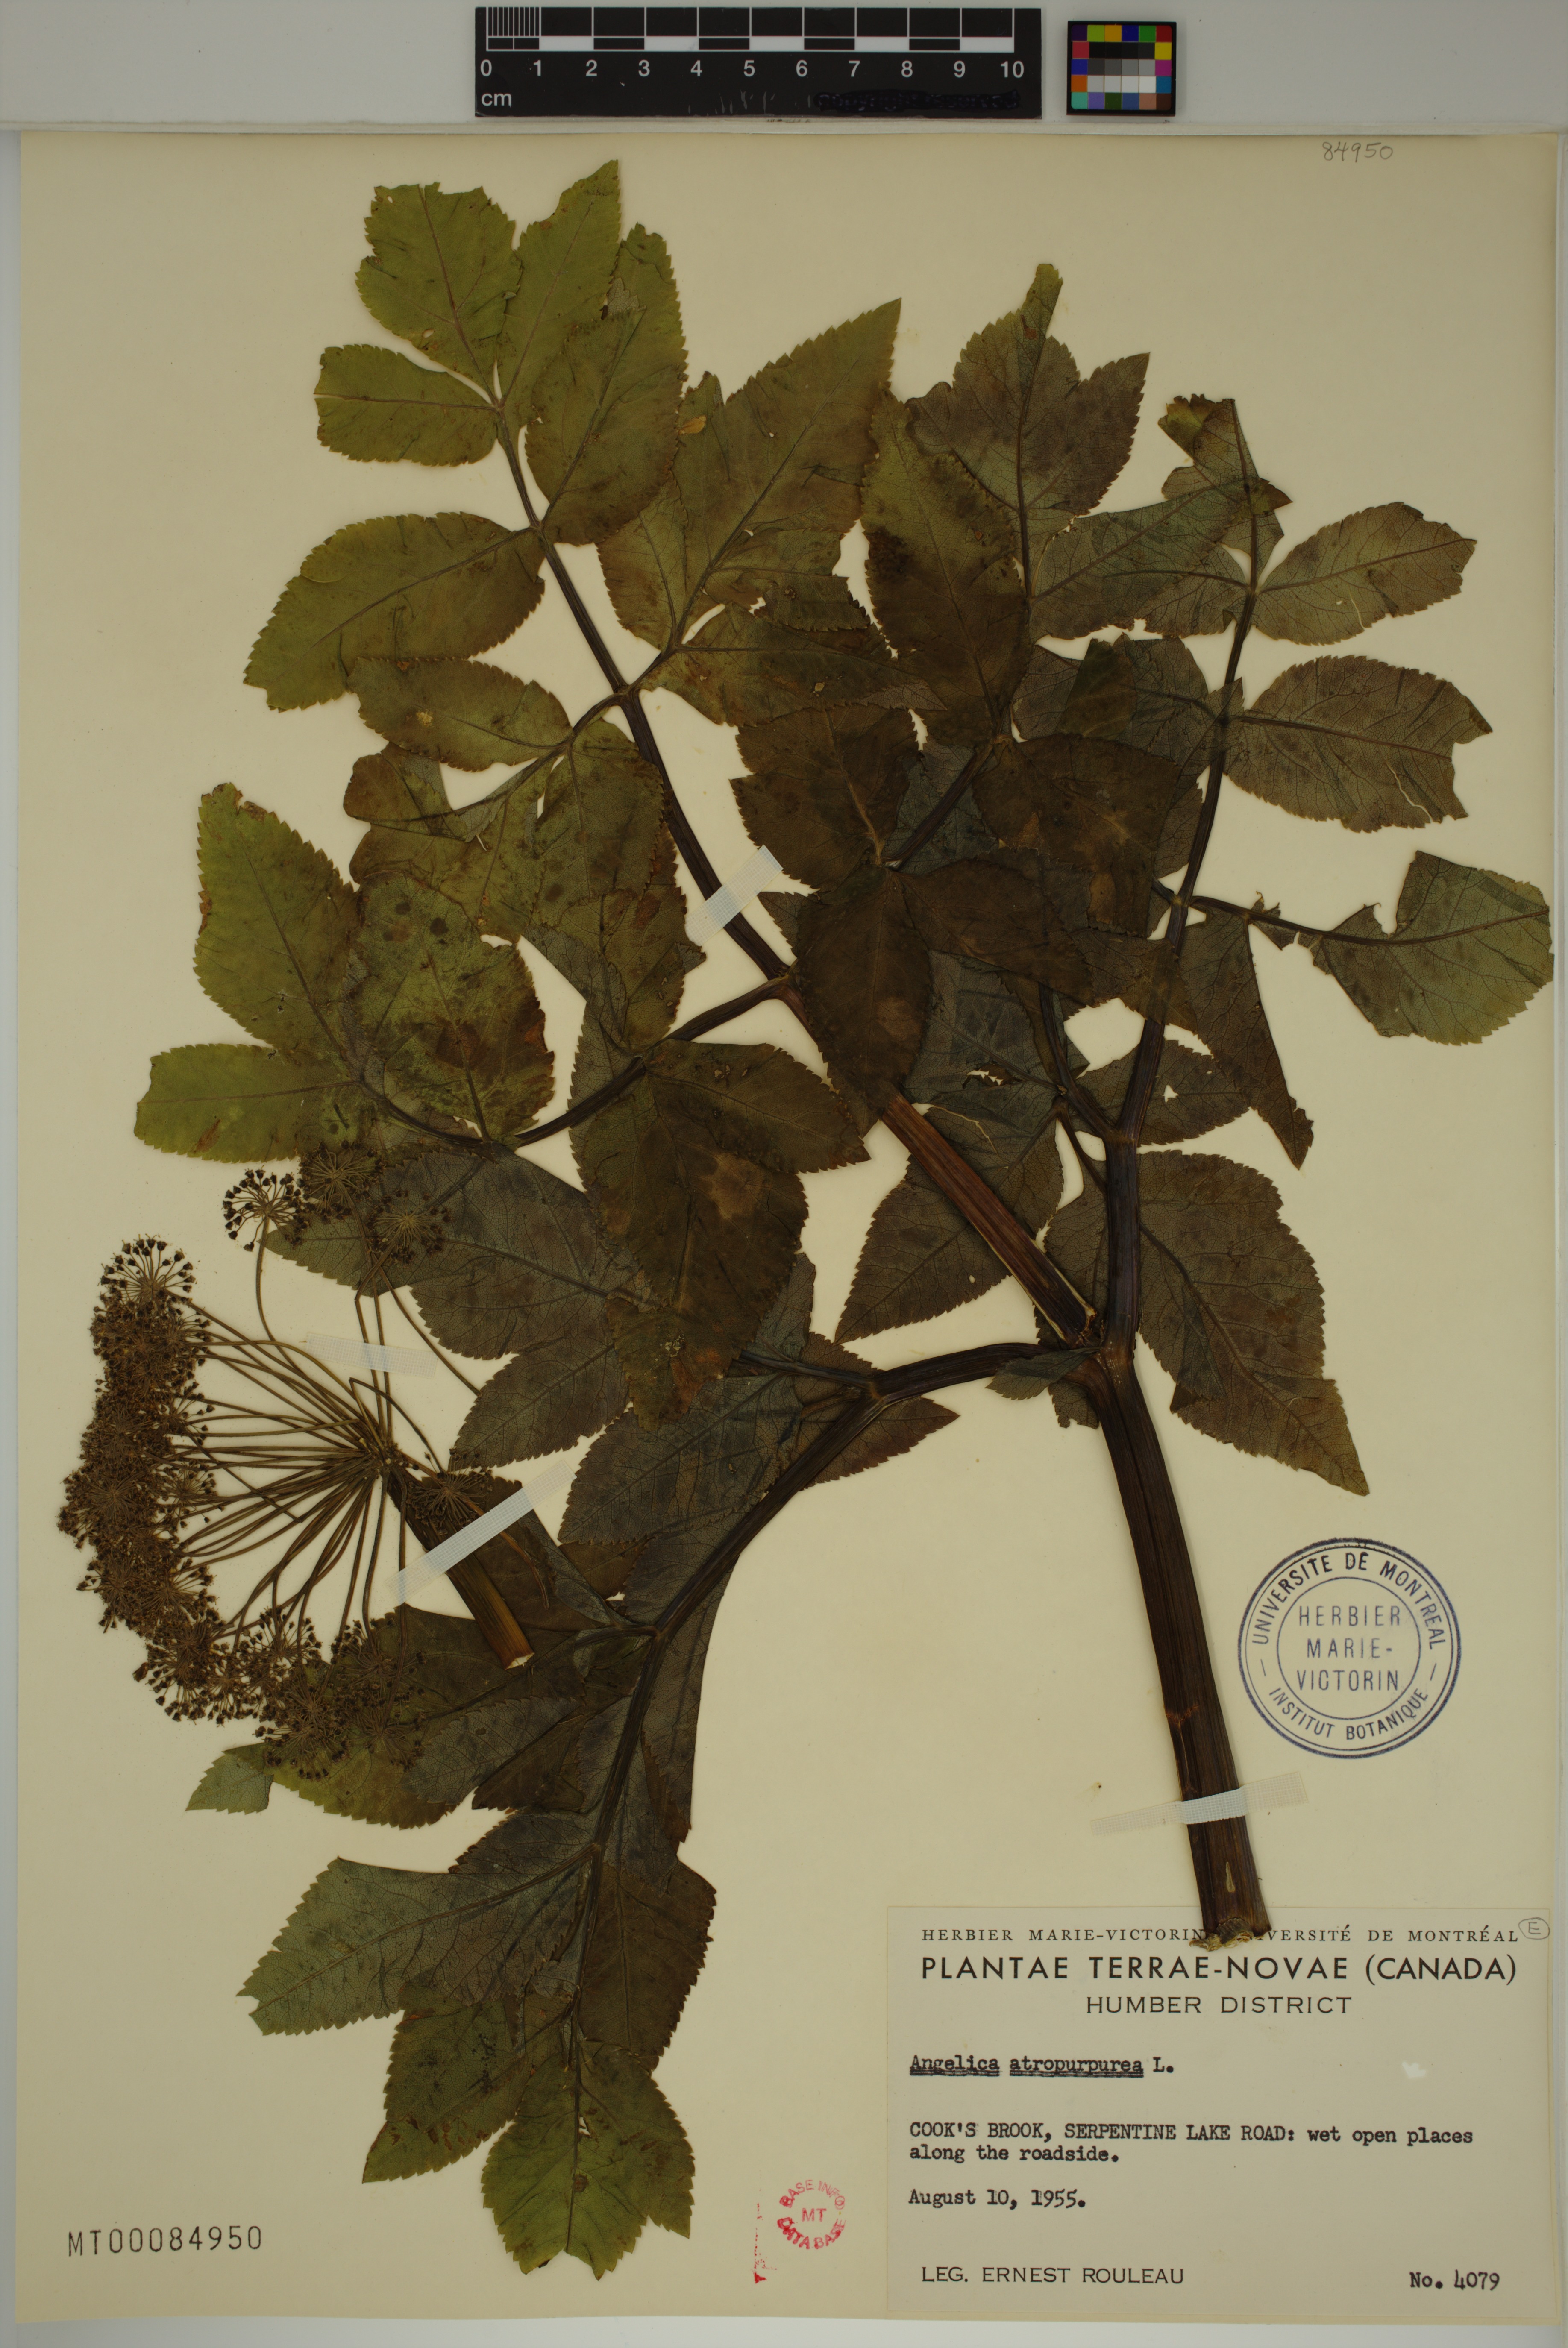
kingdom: Plantae
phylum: Tracheophyta
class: Magnoliopsida
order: Apiales
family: Apiaceae
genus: Angelica
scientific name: Angelica atropurpurea
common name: Great angelica
